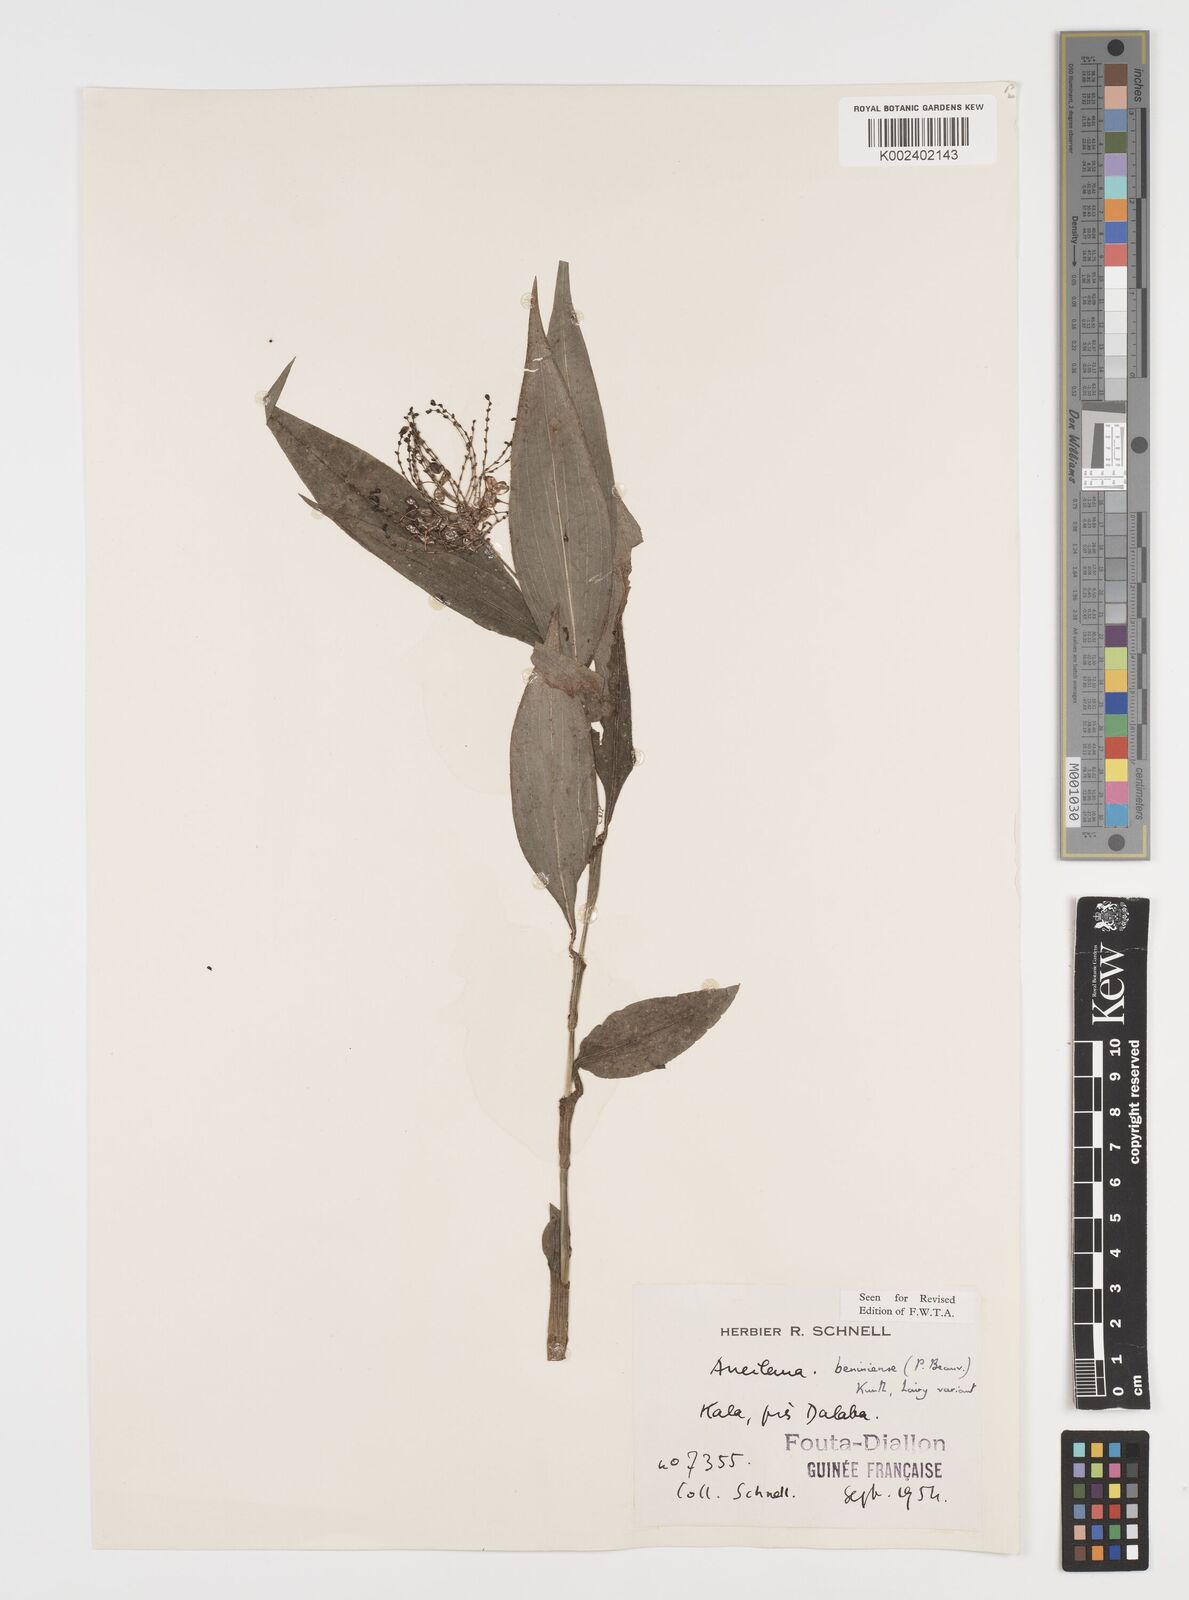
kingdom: Plantae
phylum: Tracheophyta
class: Liliopsida
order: Commelinales
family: Commelinaceae
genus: Aneilema
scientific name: Aneilema beniniense
